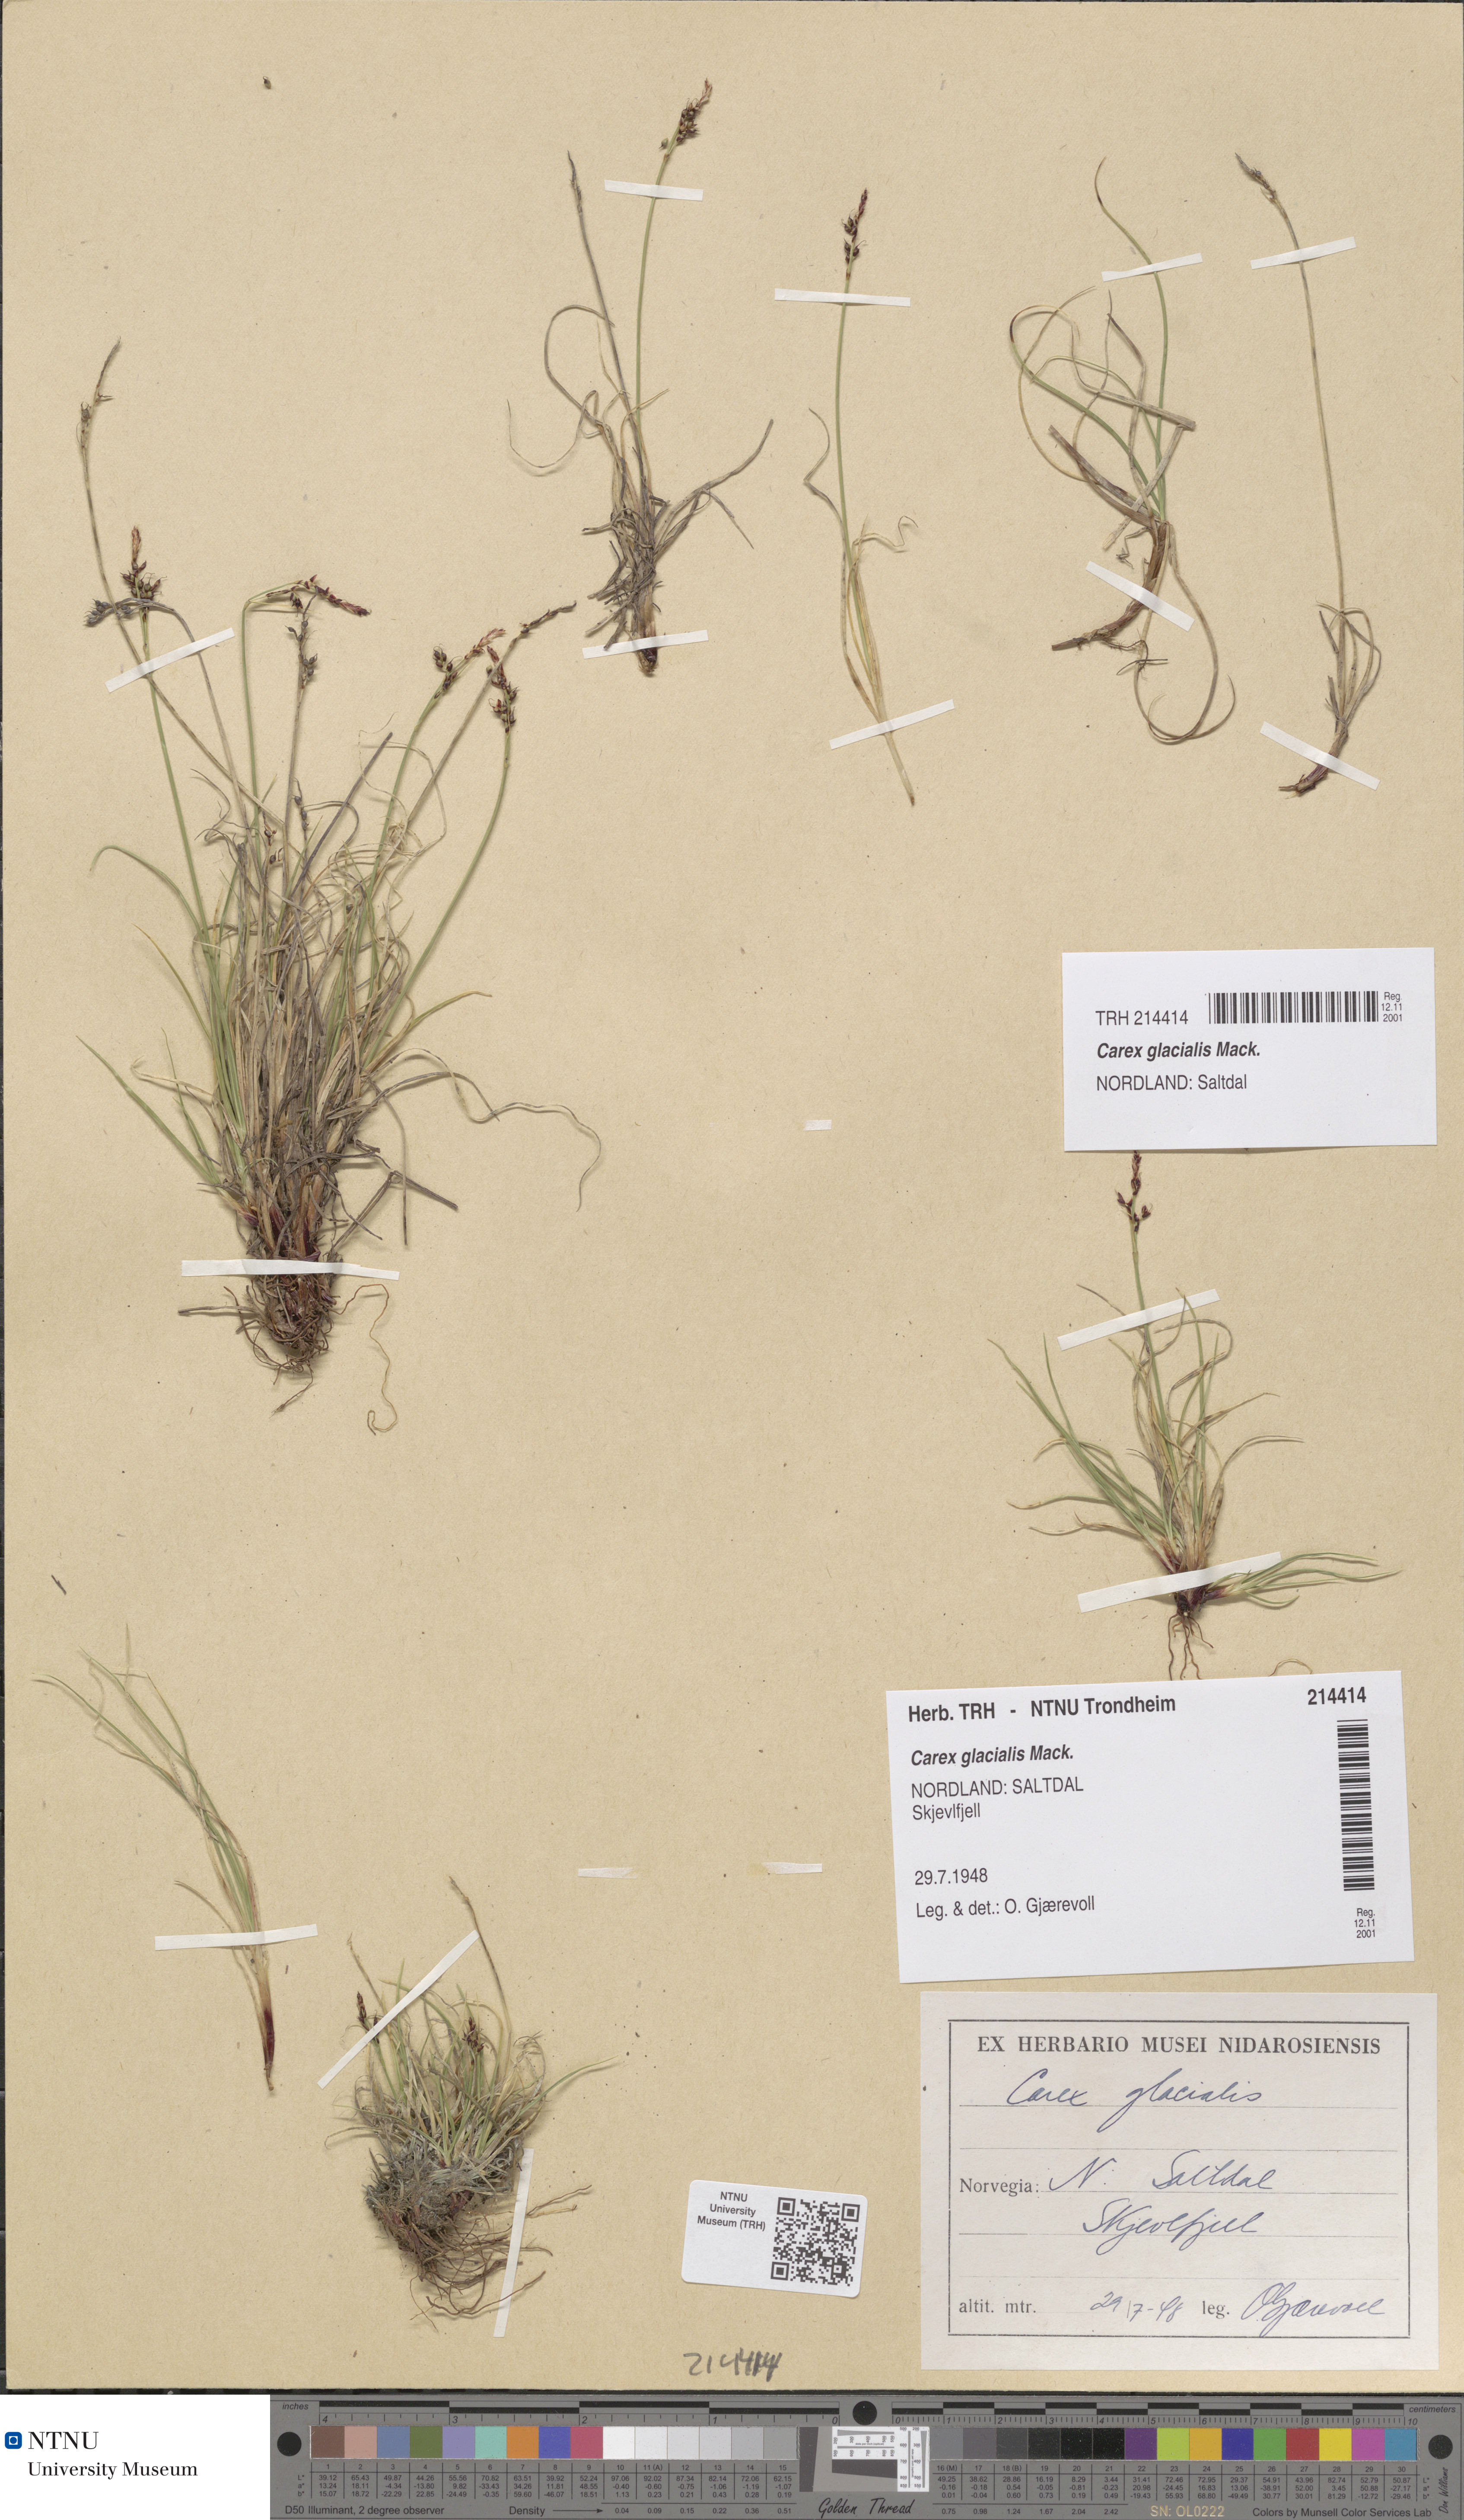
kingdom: Plantae
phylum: Tracheophyta
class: Liliopsida
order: Poales
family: Cyperaceae
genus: Carex
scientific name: Carex glacialis
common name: Newfoundland sedge
